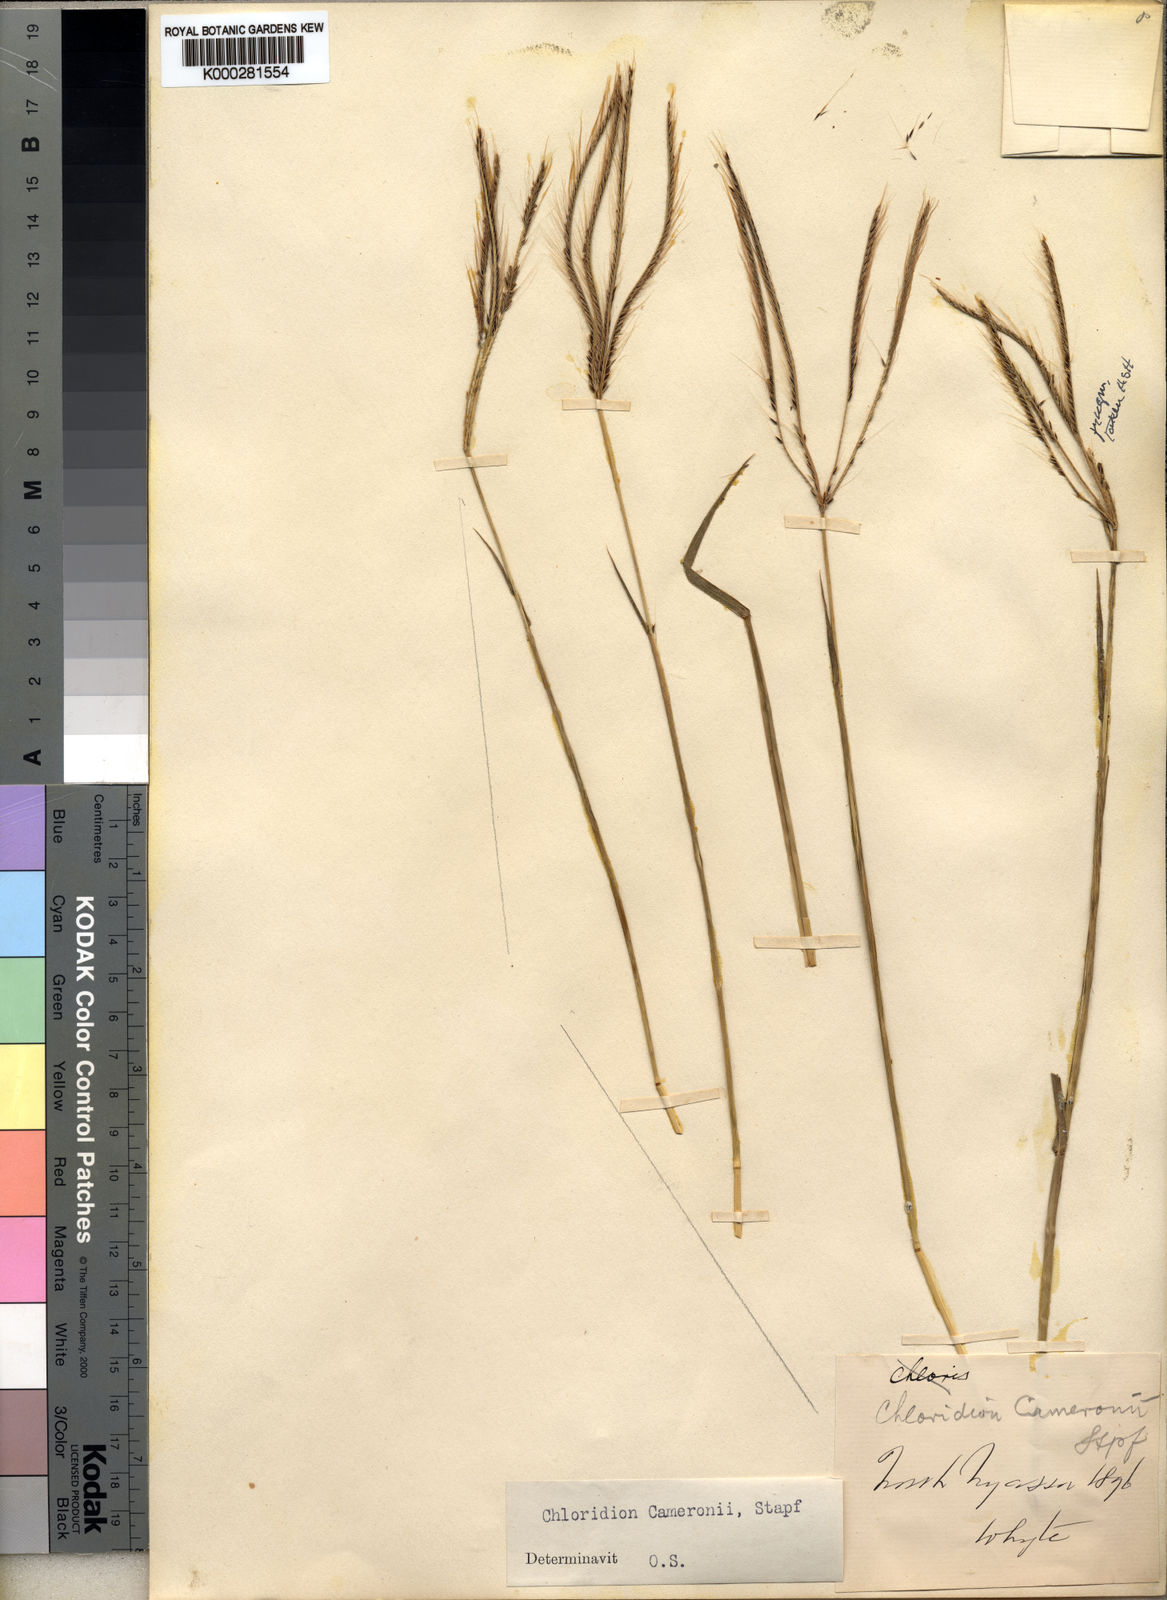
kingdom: Plantae
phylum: Tracheophyta
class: Liliopsida
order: Poales
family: Poaceae
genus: Stereochlaena
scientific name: Stereochlaena cameronii
